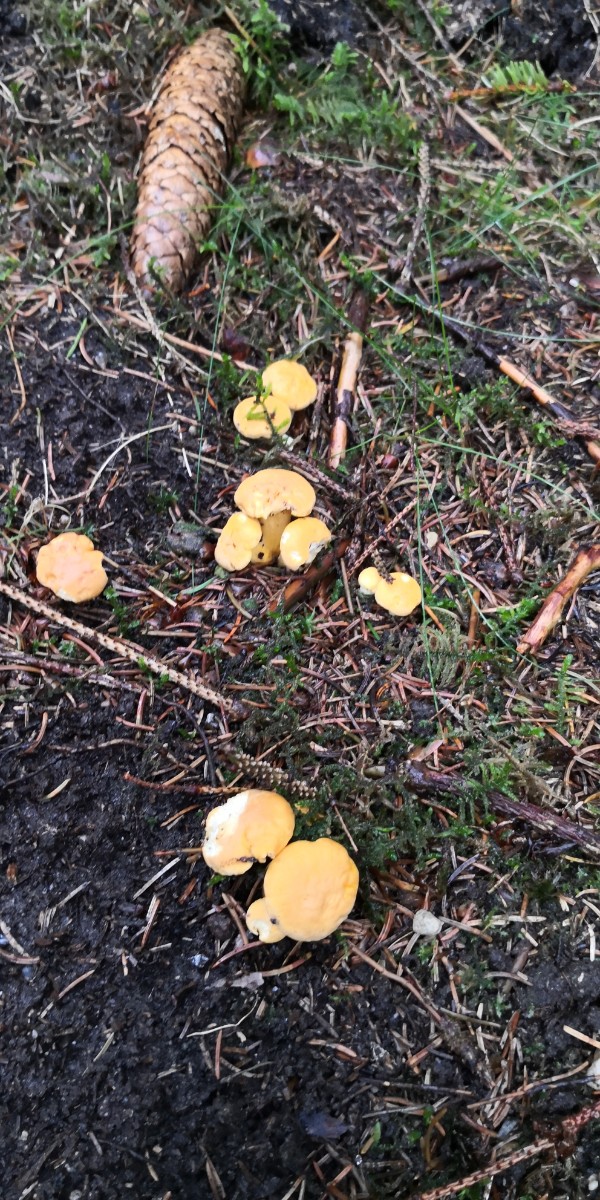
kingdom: Fungi
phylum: Basidiomycota
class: Agaricomycetes
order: Cantharellales
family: Hydnaceae
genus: Cantharellus
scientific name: Cantharellus cibarius
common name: almindelig kantarel
